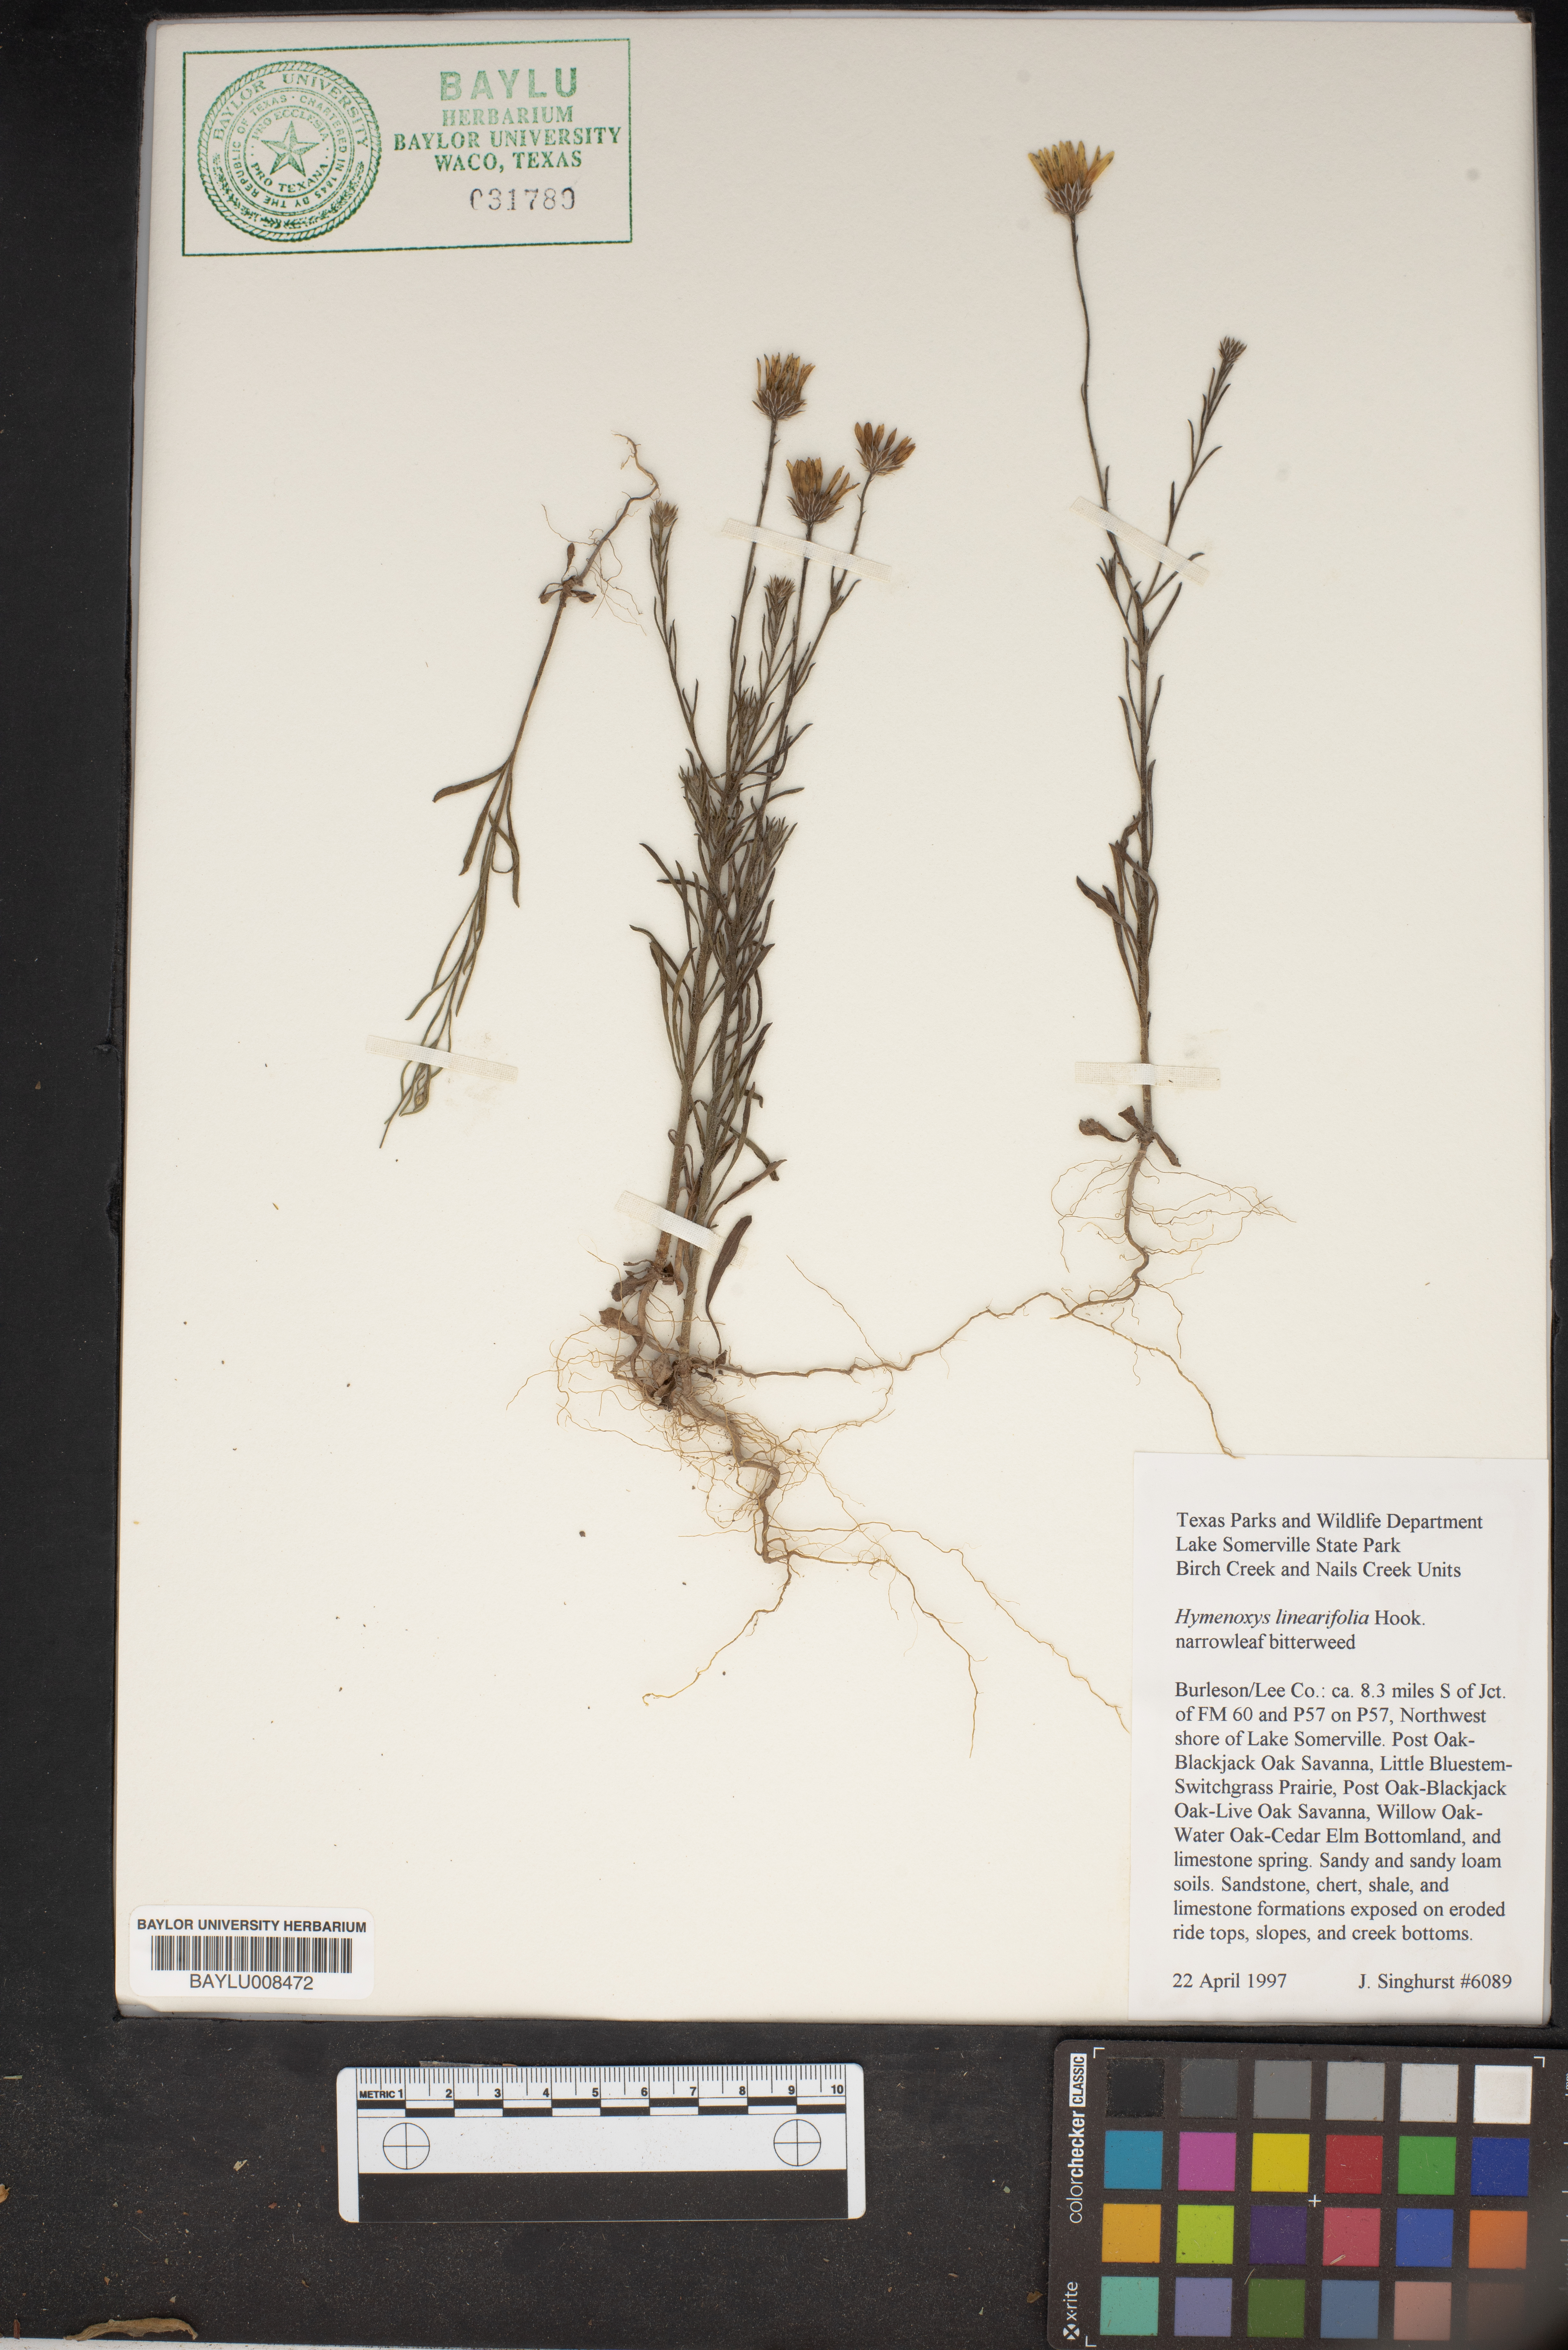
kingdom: Plantae
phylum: Tracheophyta
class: Magnoliopsida
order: Asterales
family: Asteraceae
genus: Tetraneuris
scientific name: Tetraneuris linearifolia
